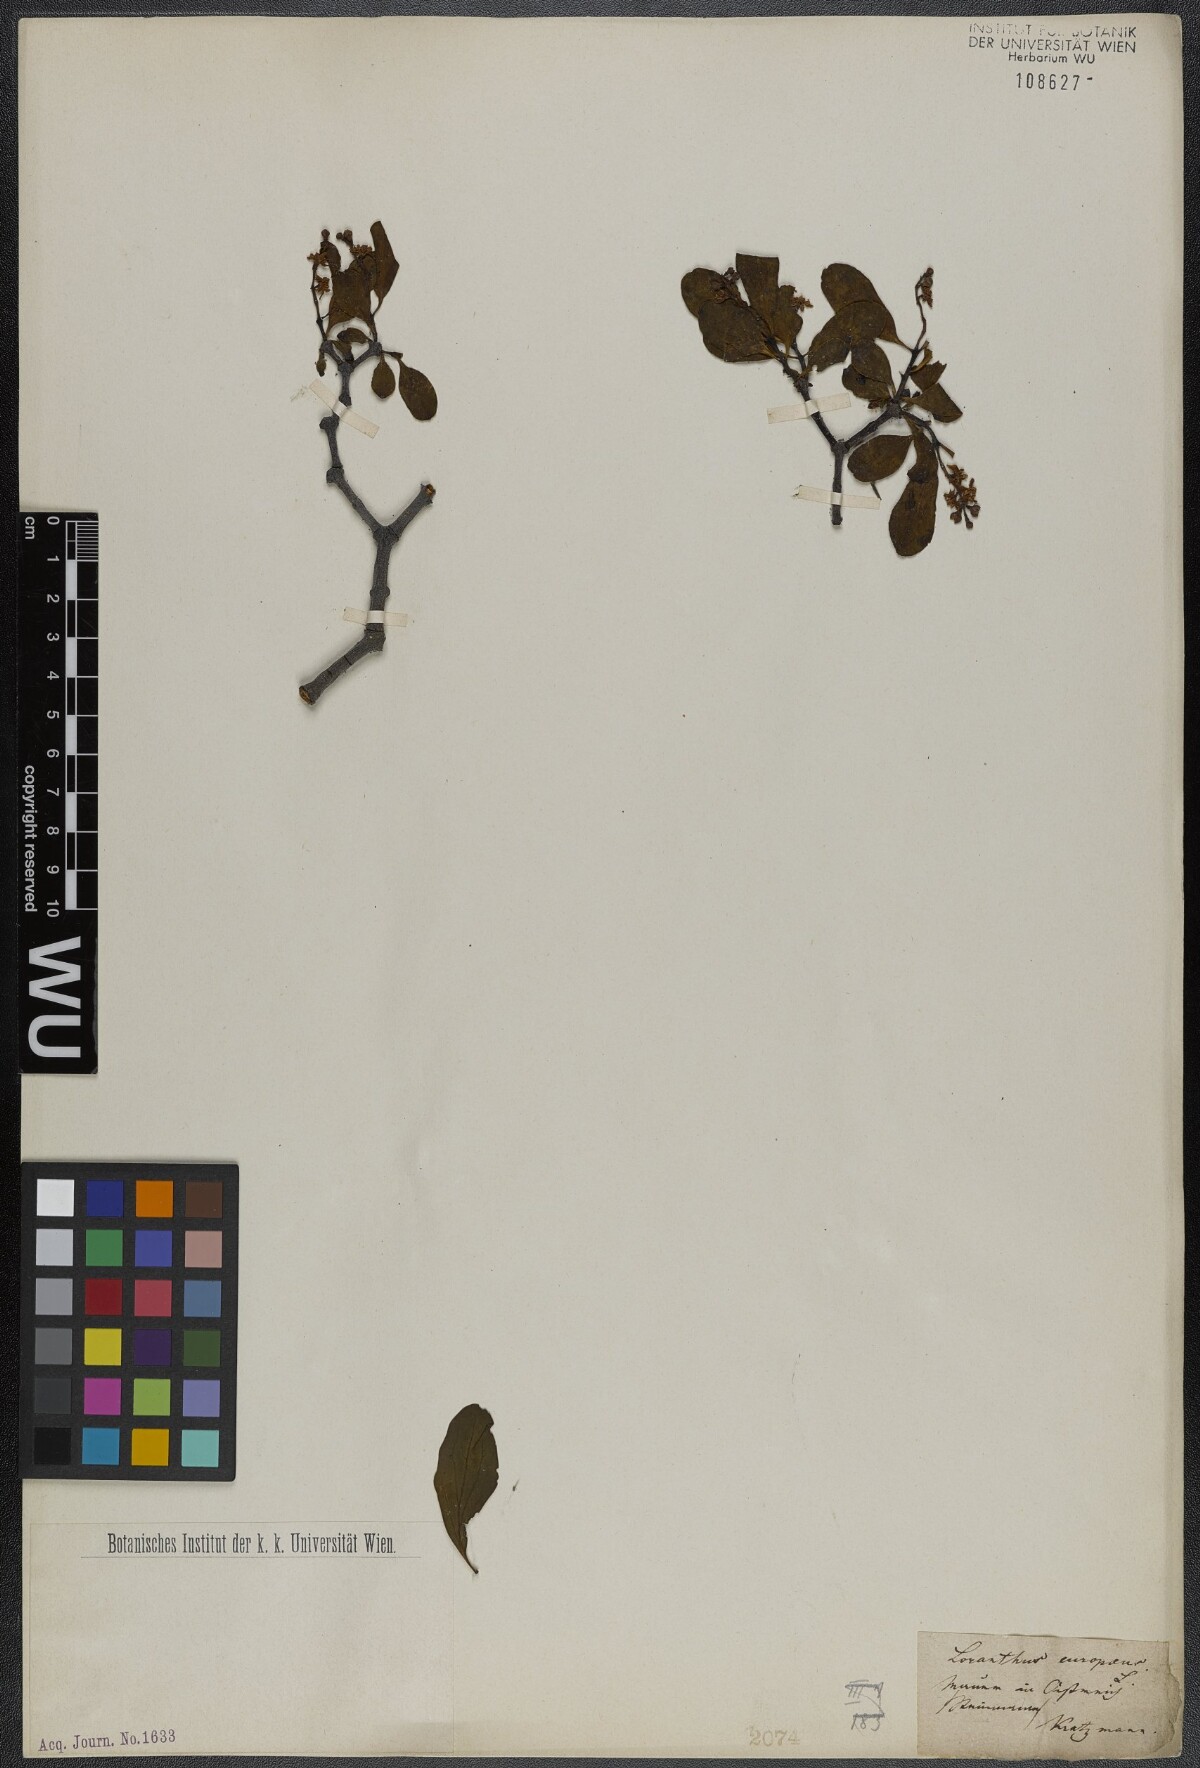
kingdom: Plantae
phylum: Tracheophyta
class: Magnoliopsida
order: Santalales
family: Loranthaceae
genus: Loranthus
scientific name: Loranthus europaeus
